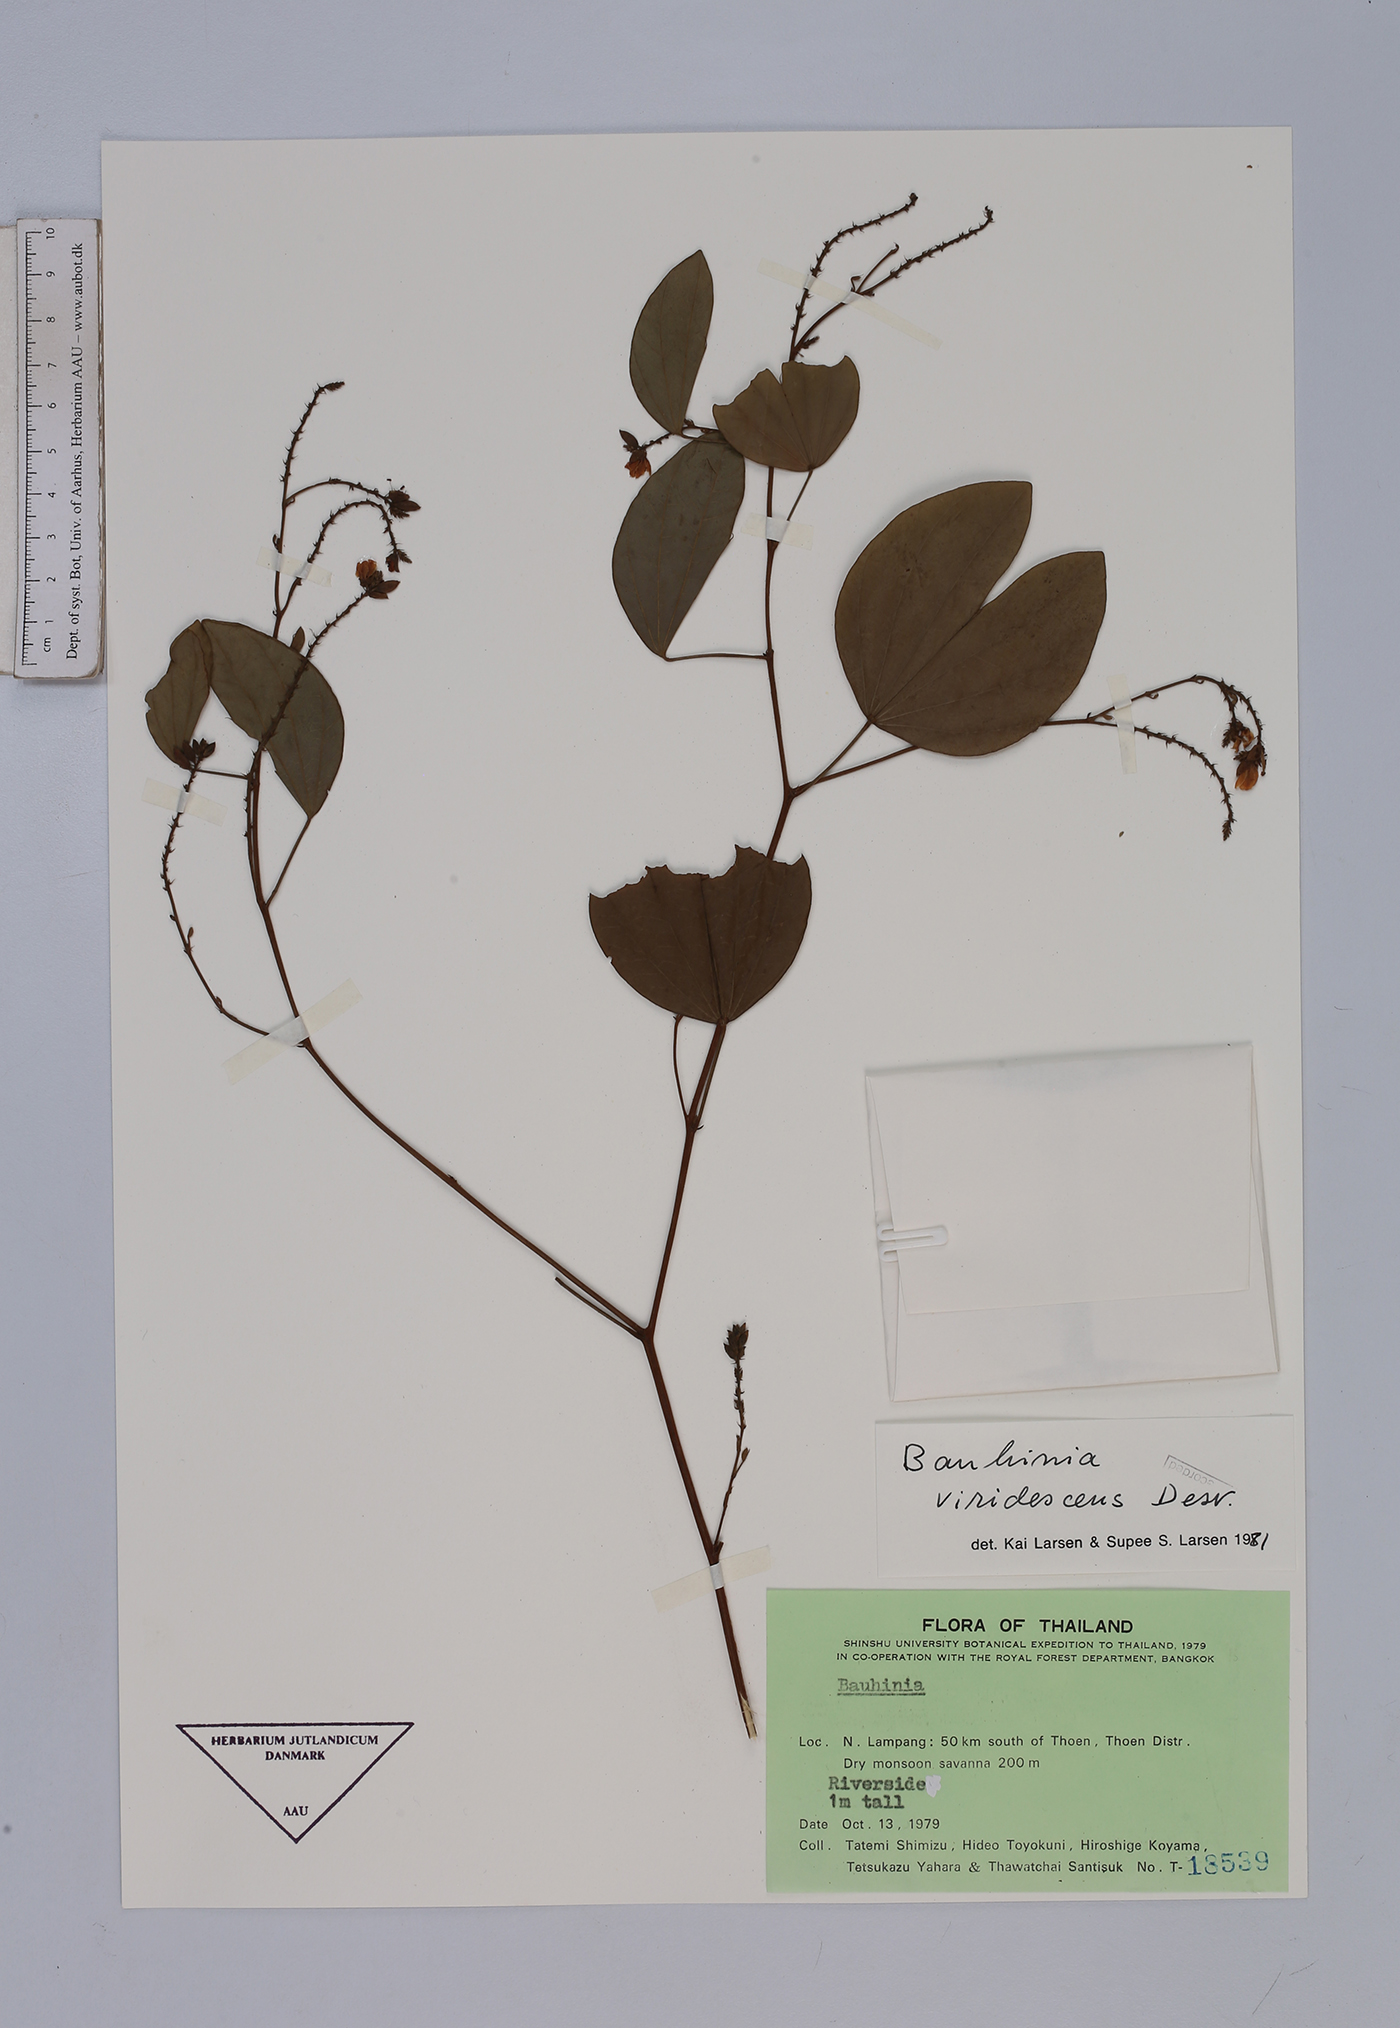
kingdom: Plantae
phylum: Tracheophyta
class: Magnoliopsida
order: Fabales
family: Fabaceae
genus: Bauhinia
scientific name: Bauhinia viridescens
